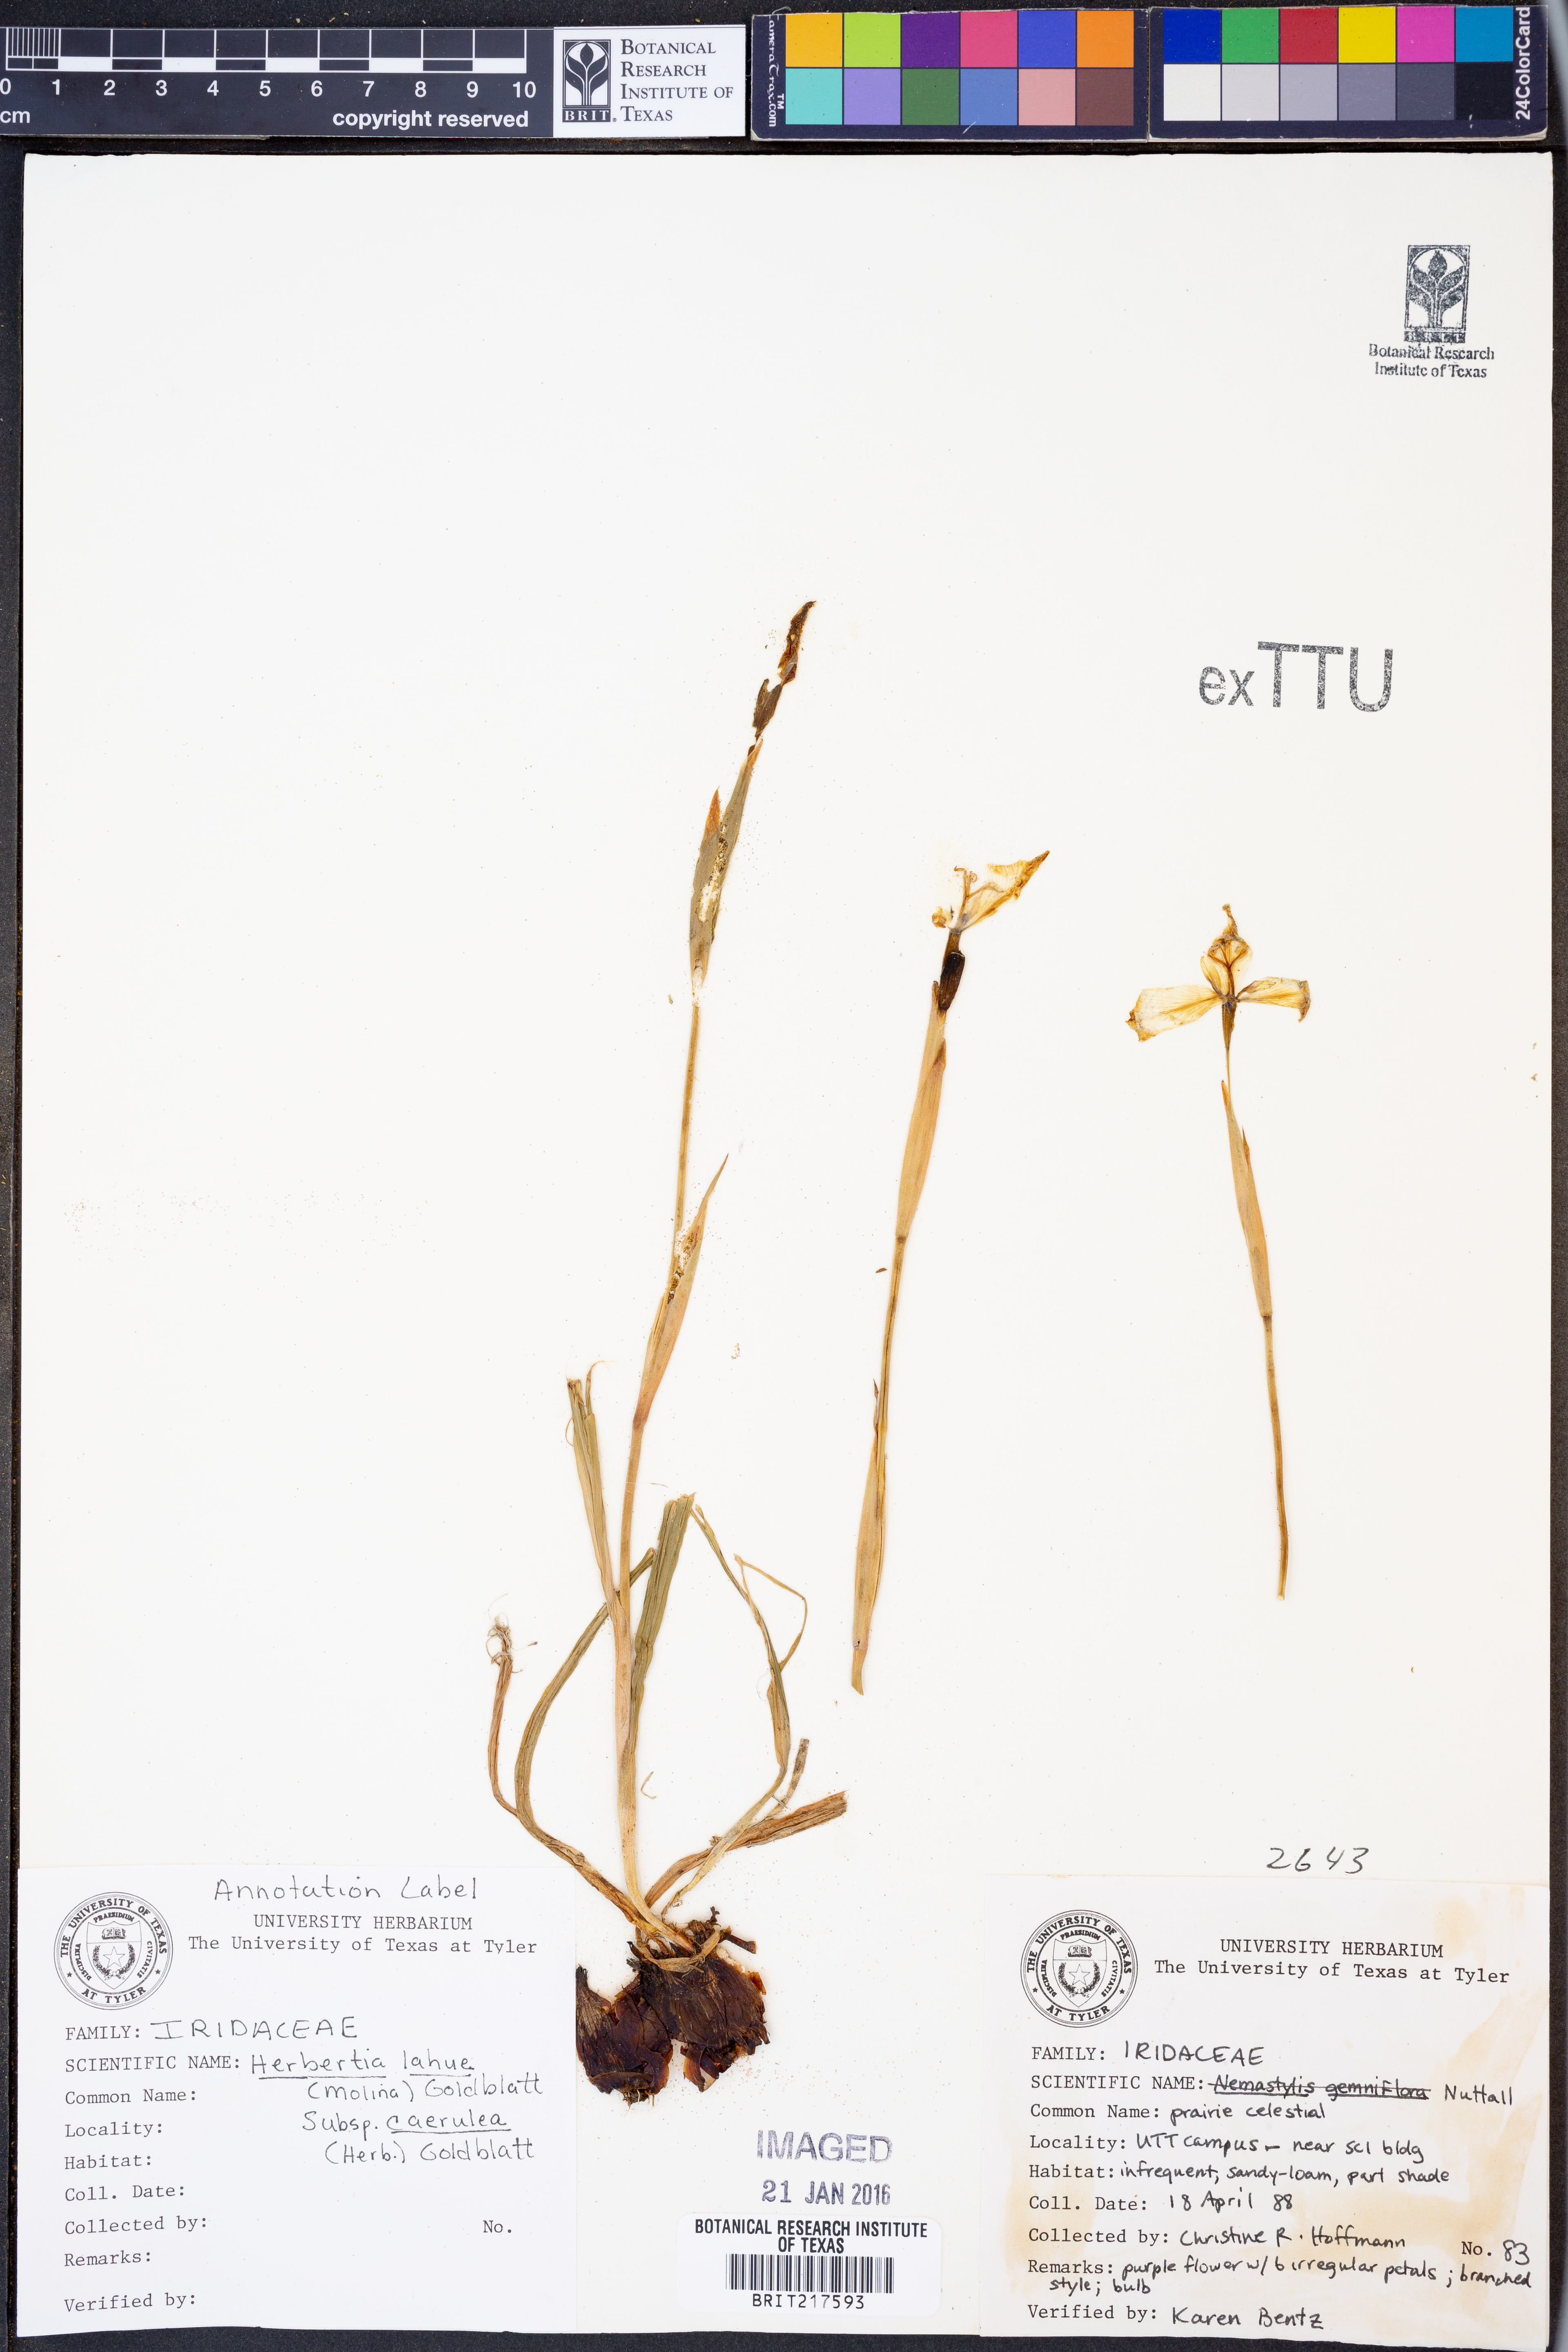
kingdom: Plantae
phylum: Tracheophyta
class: Liliopsida
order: Asparagales
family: Iridaceae
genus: Herbertia
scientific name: Herbertia lahue
